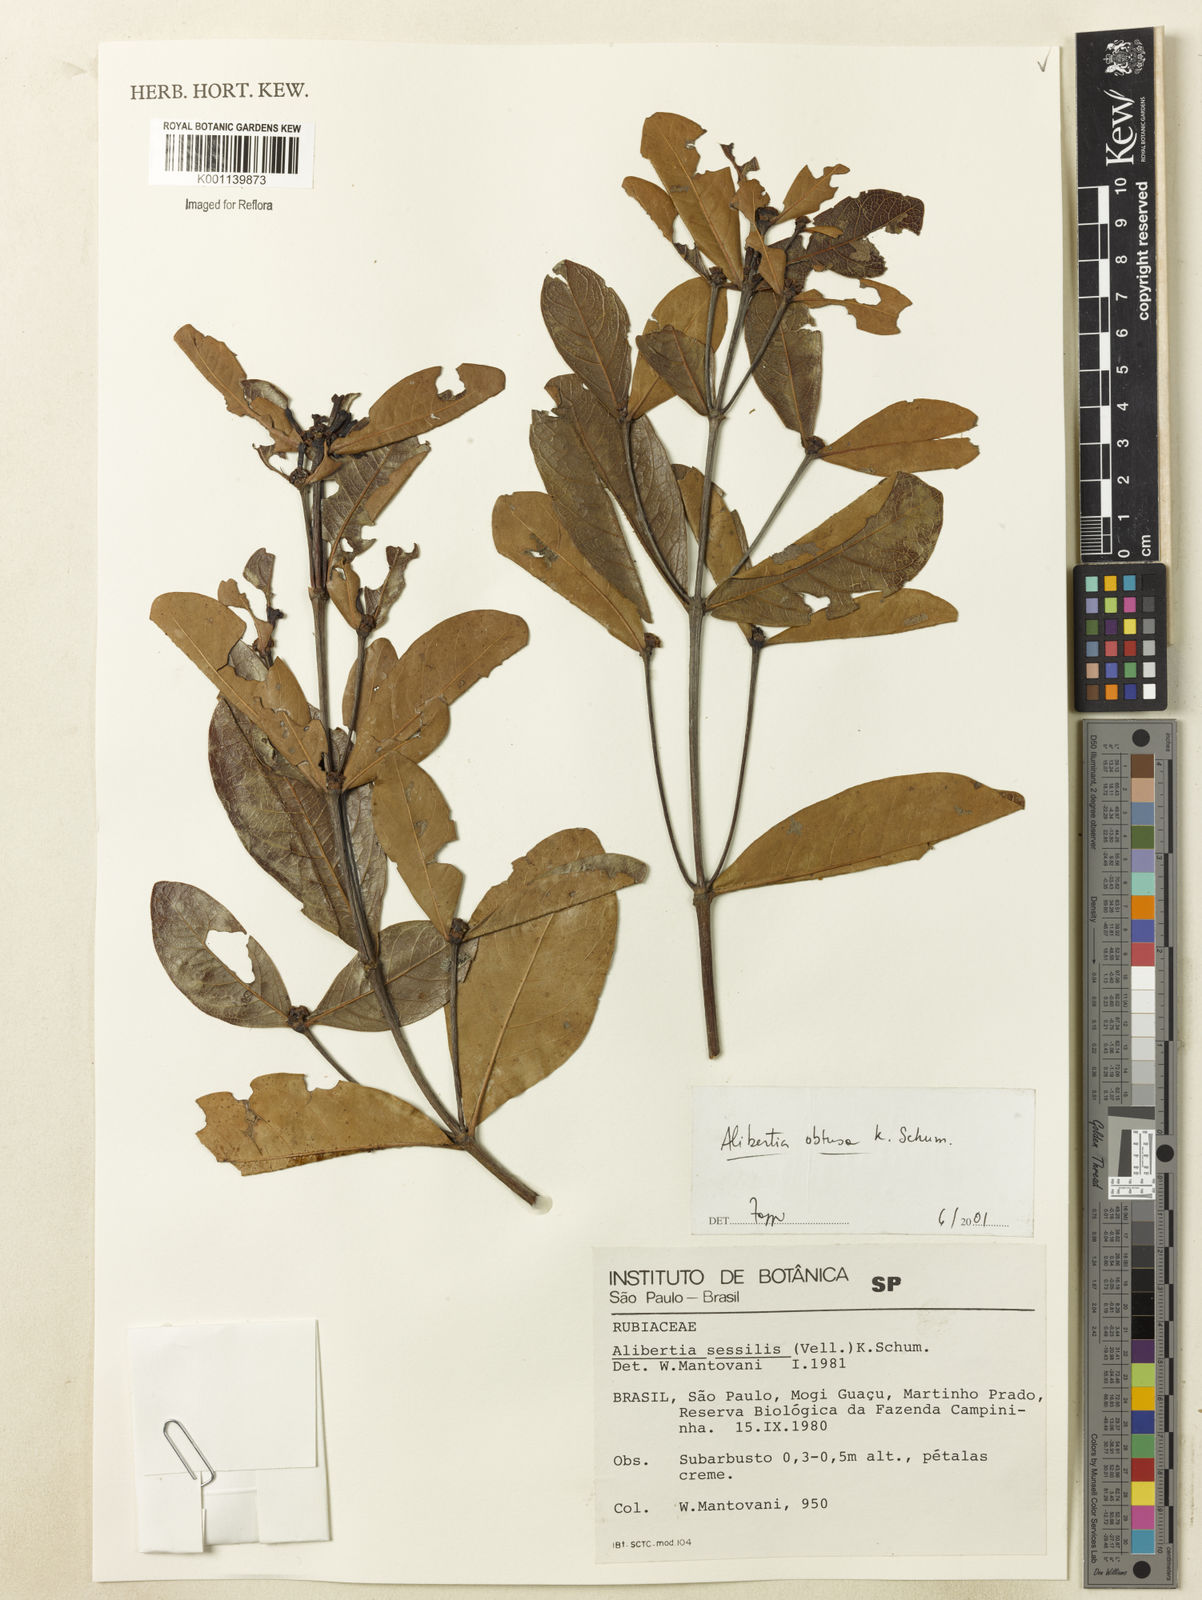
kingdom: Plantae
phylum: Tracheophyta
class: Magnoliopsida
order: Gentianales
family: Rubiaceae
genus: Cordiera
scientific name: Cordiera obtusa
